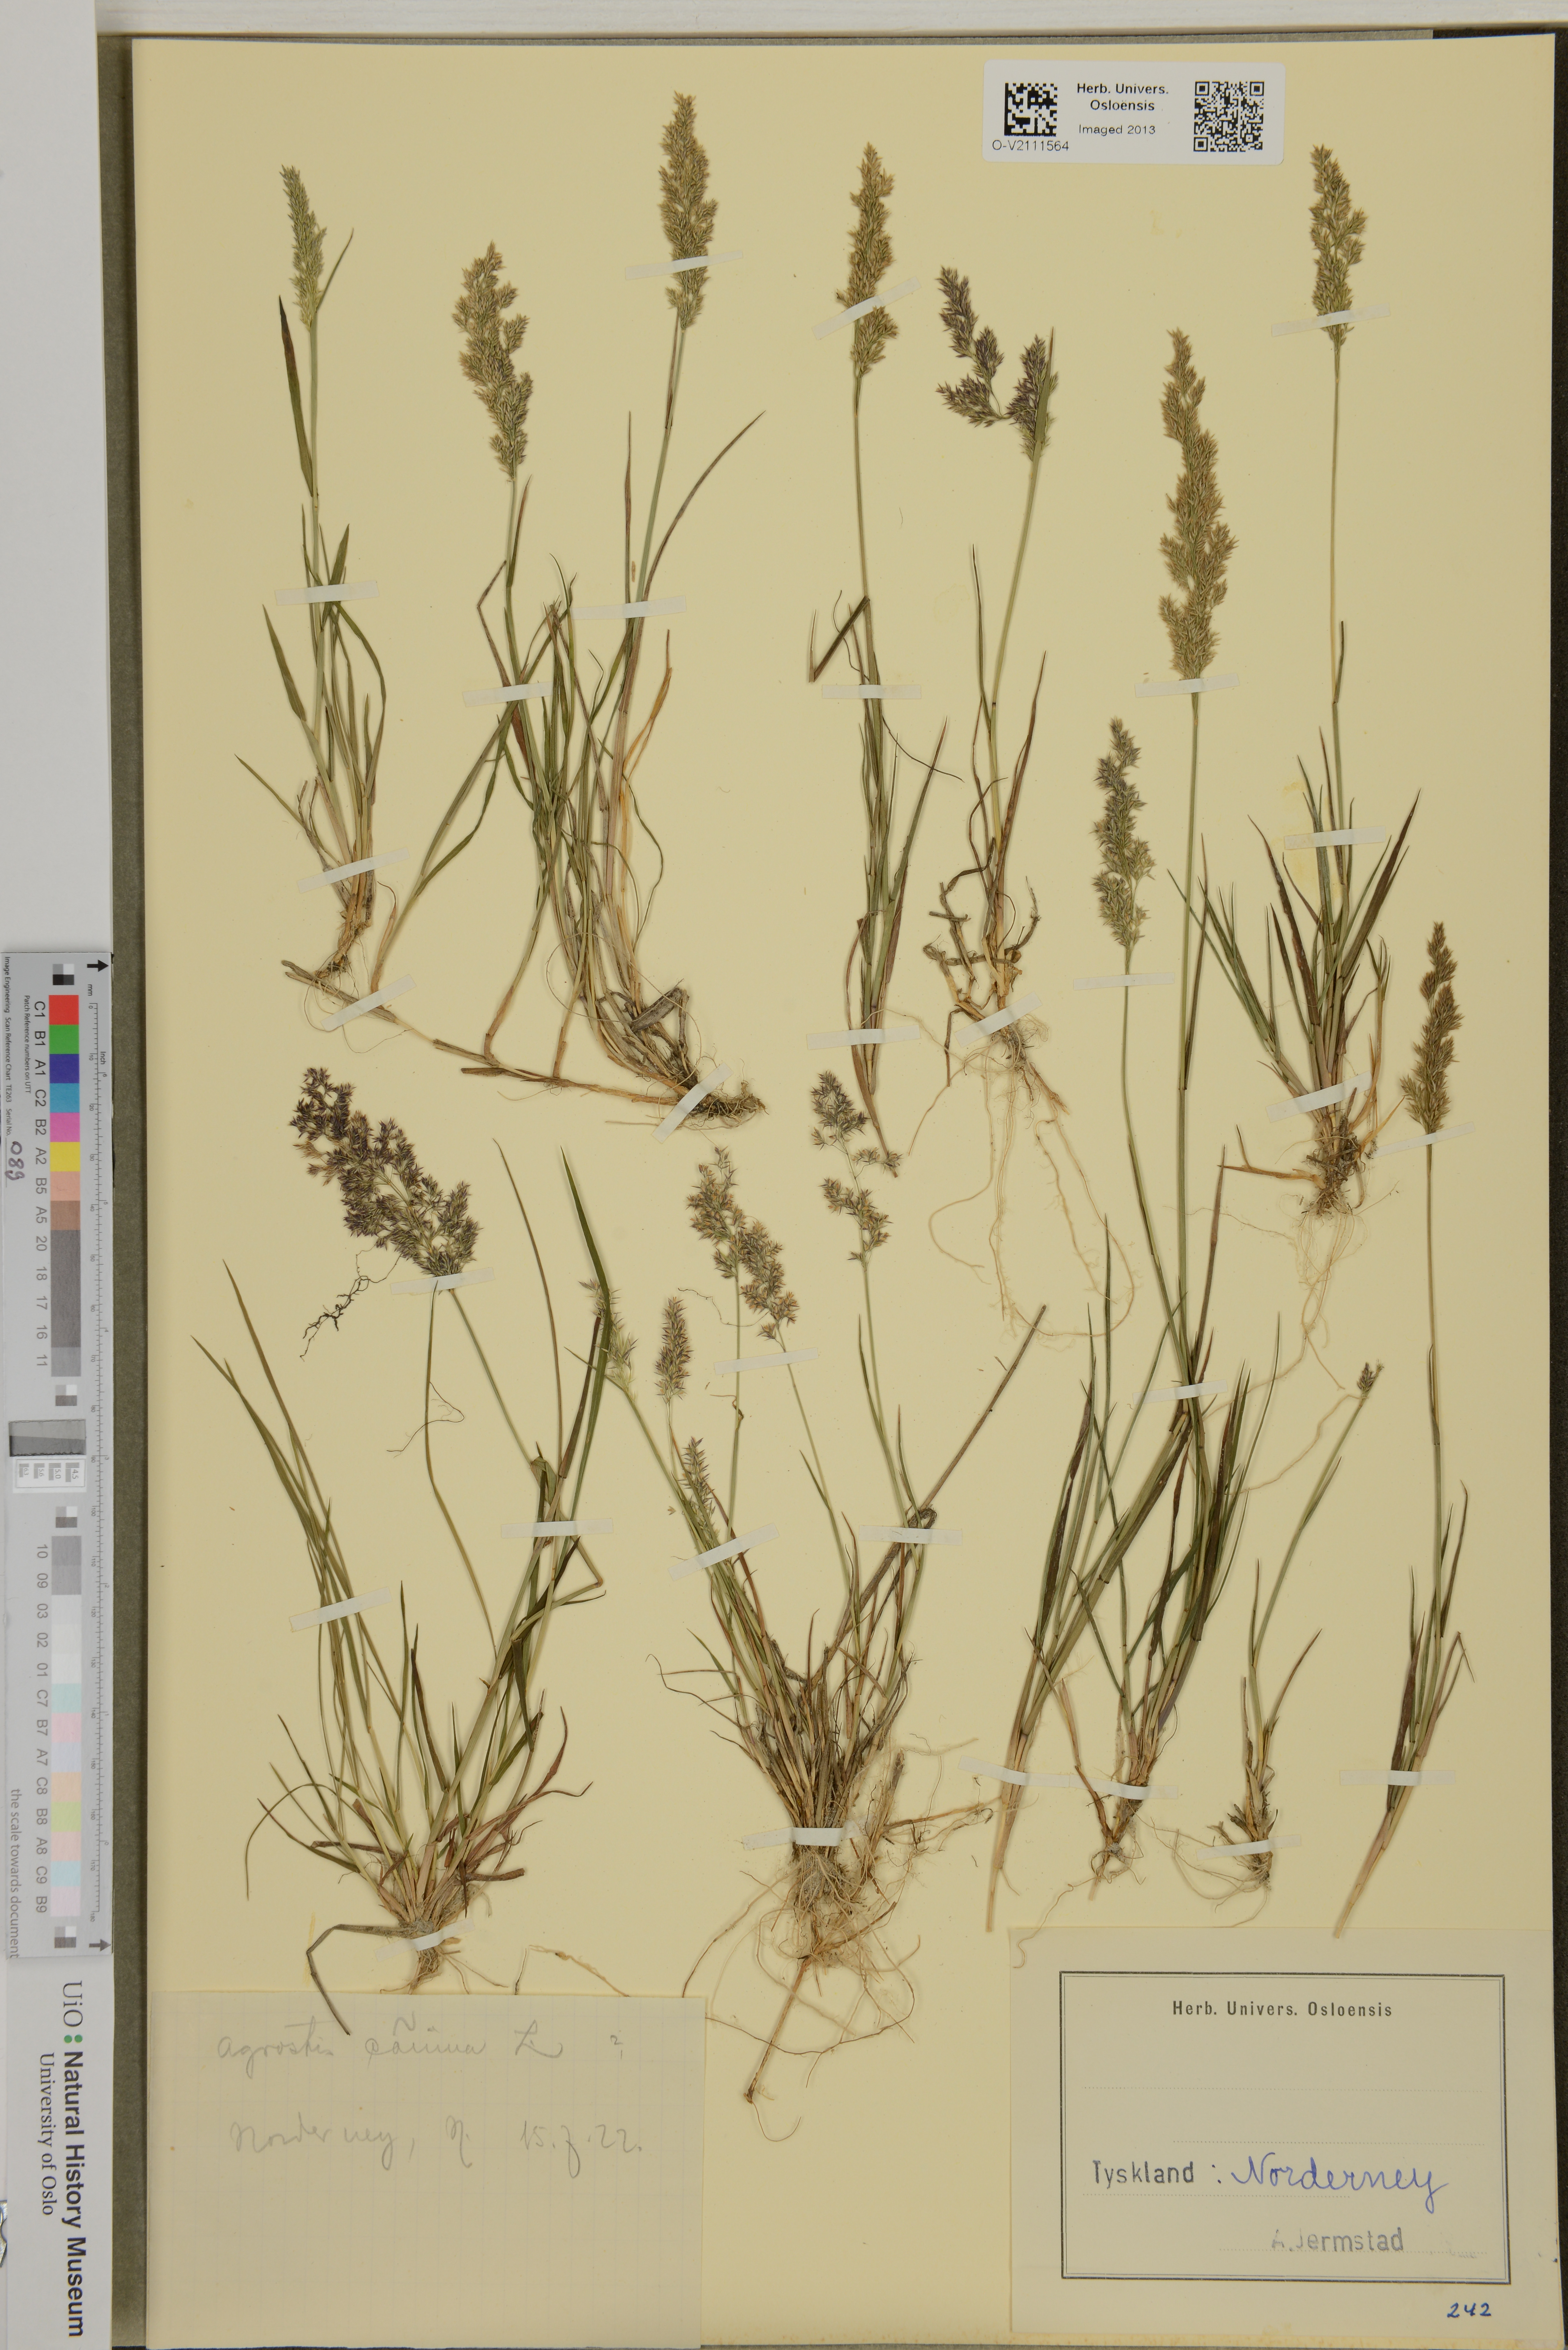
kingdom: Plantae
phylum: Tracheophyta
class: Liliopsida
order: Poales
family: Poaceae
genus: Agrostis
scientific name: Agrostis canina
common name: Velvet bent
